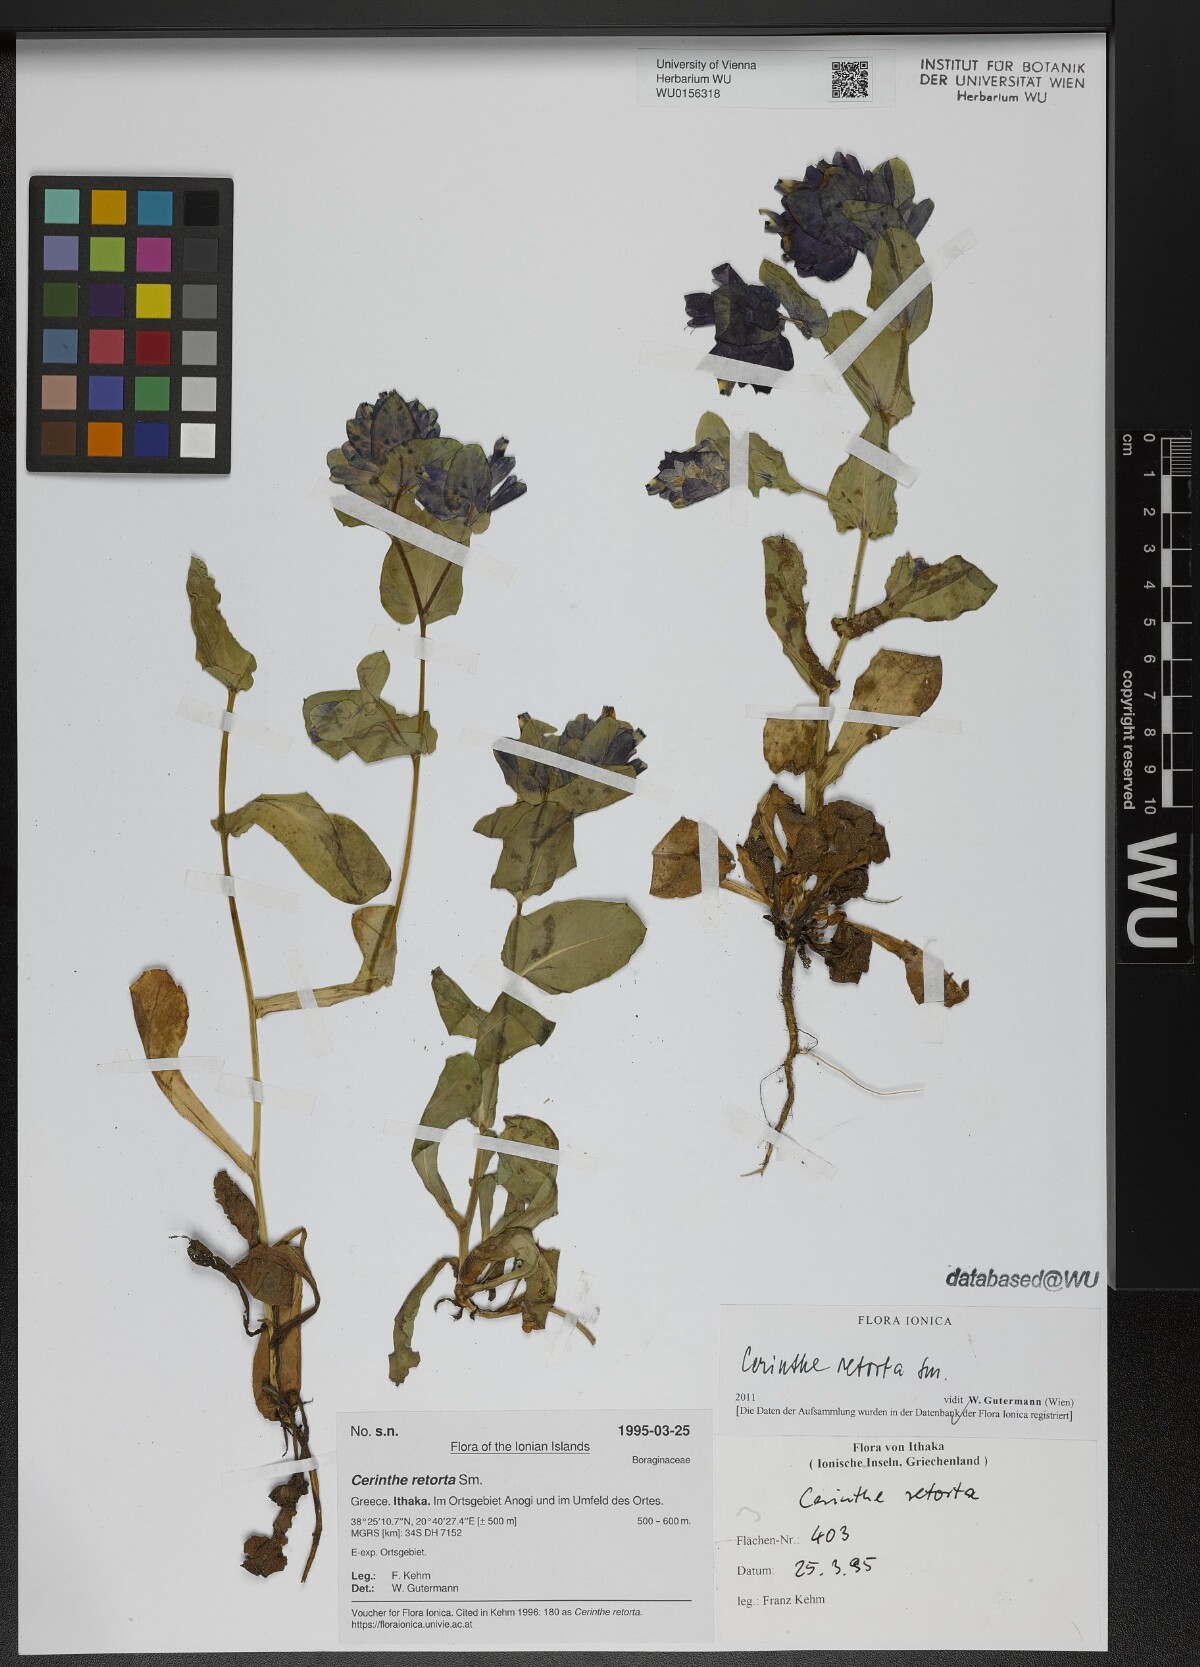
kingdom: Plantae
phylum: Tracheophyta
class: Magnoliopsida
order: Boraginales
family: Boraginaceae
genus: Cerinthe
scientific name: Cerinthe retorta
